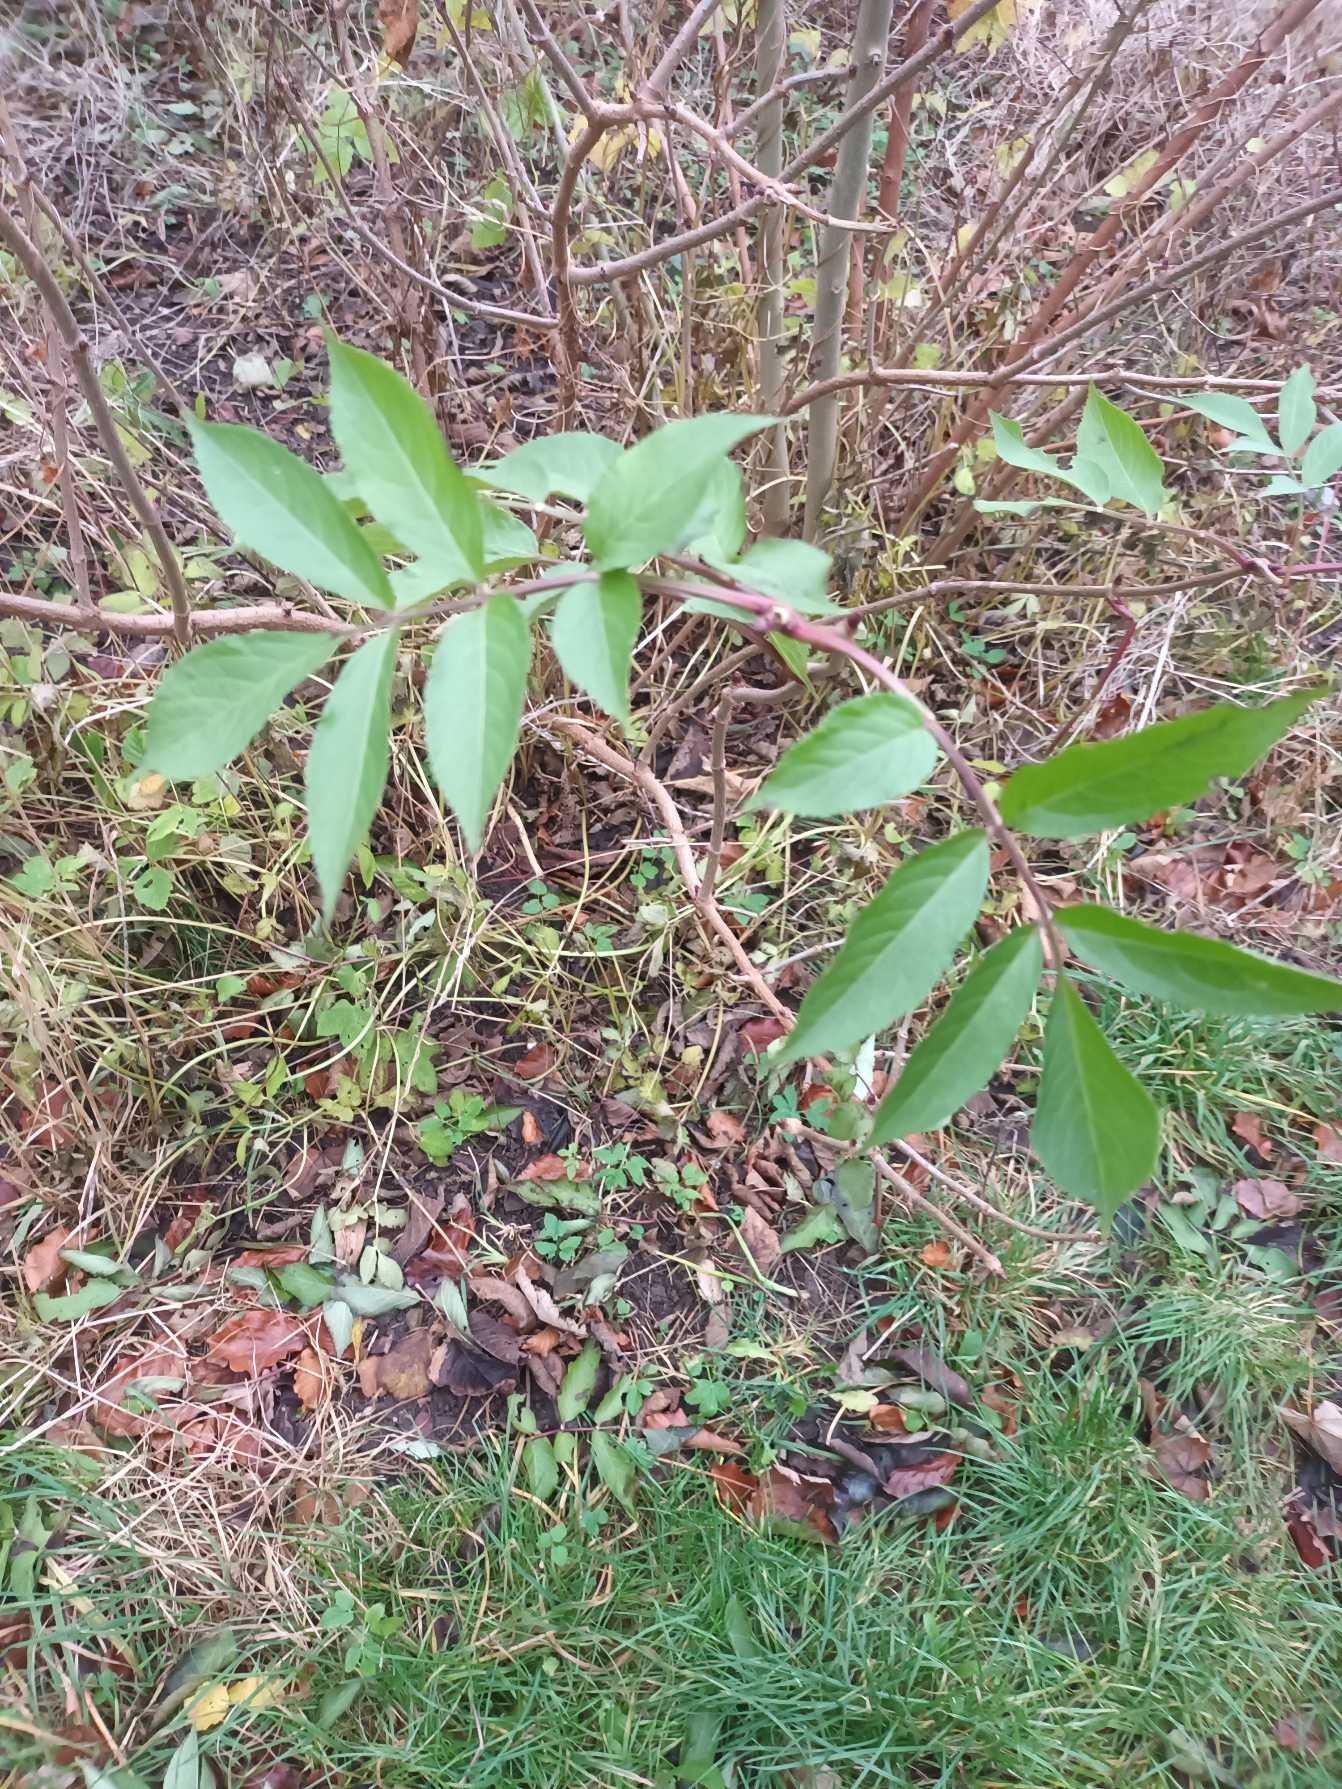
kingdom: Plantae
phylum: Tracheophyta
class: Magnoliopsida
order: Dipsacales
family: Viburnaceae
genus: Sambucus
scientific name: Sambucus nigra
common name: Almindelig hyld
